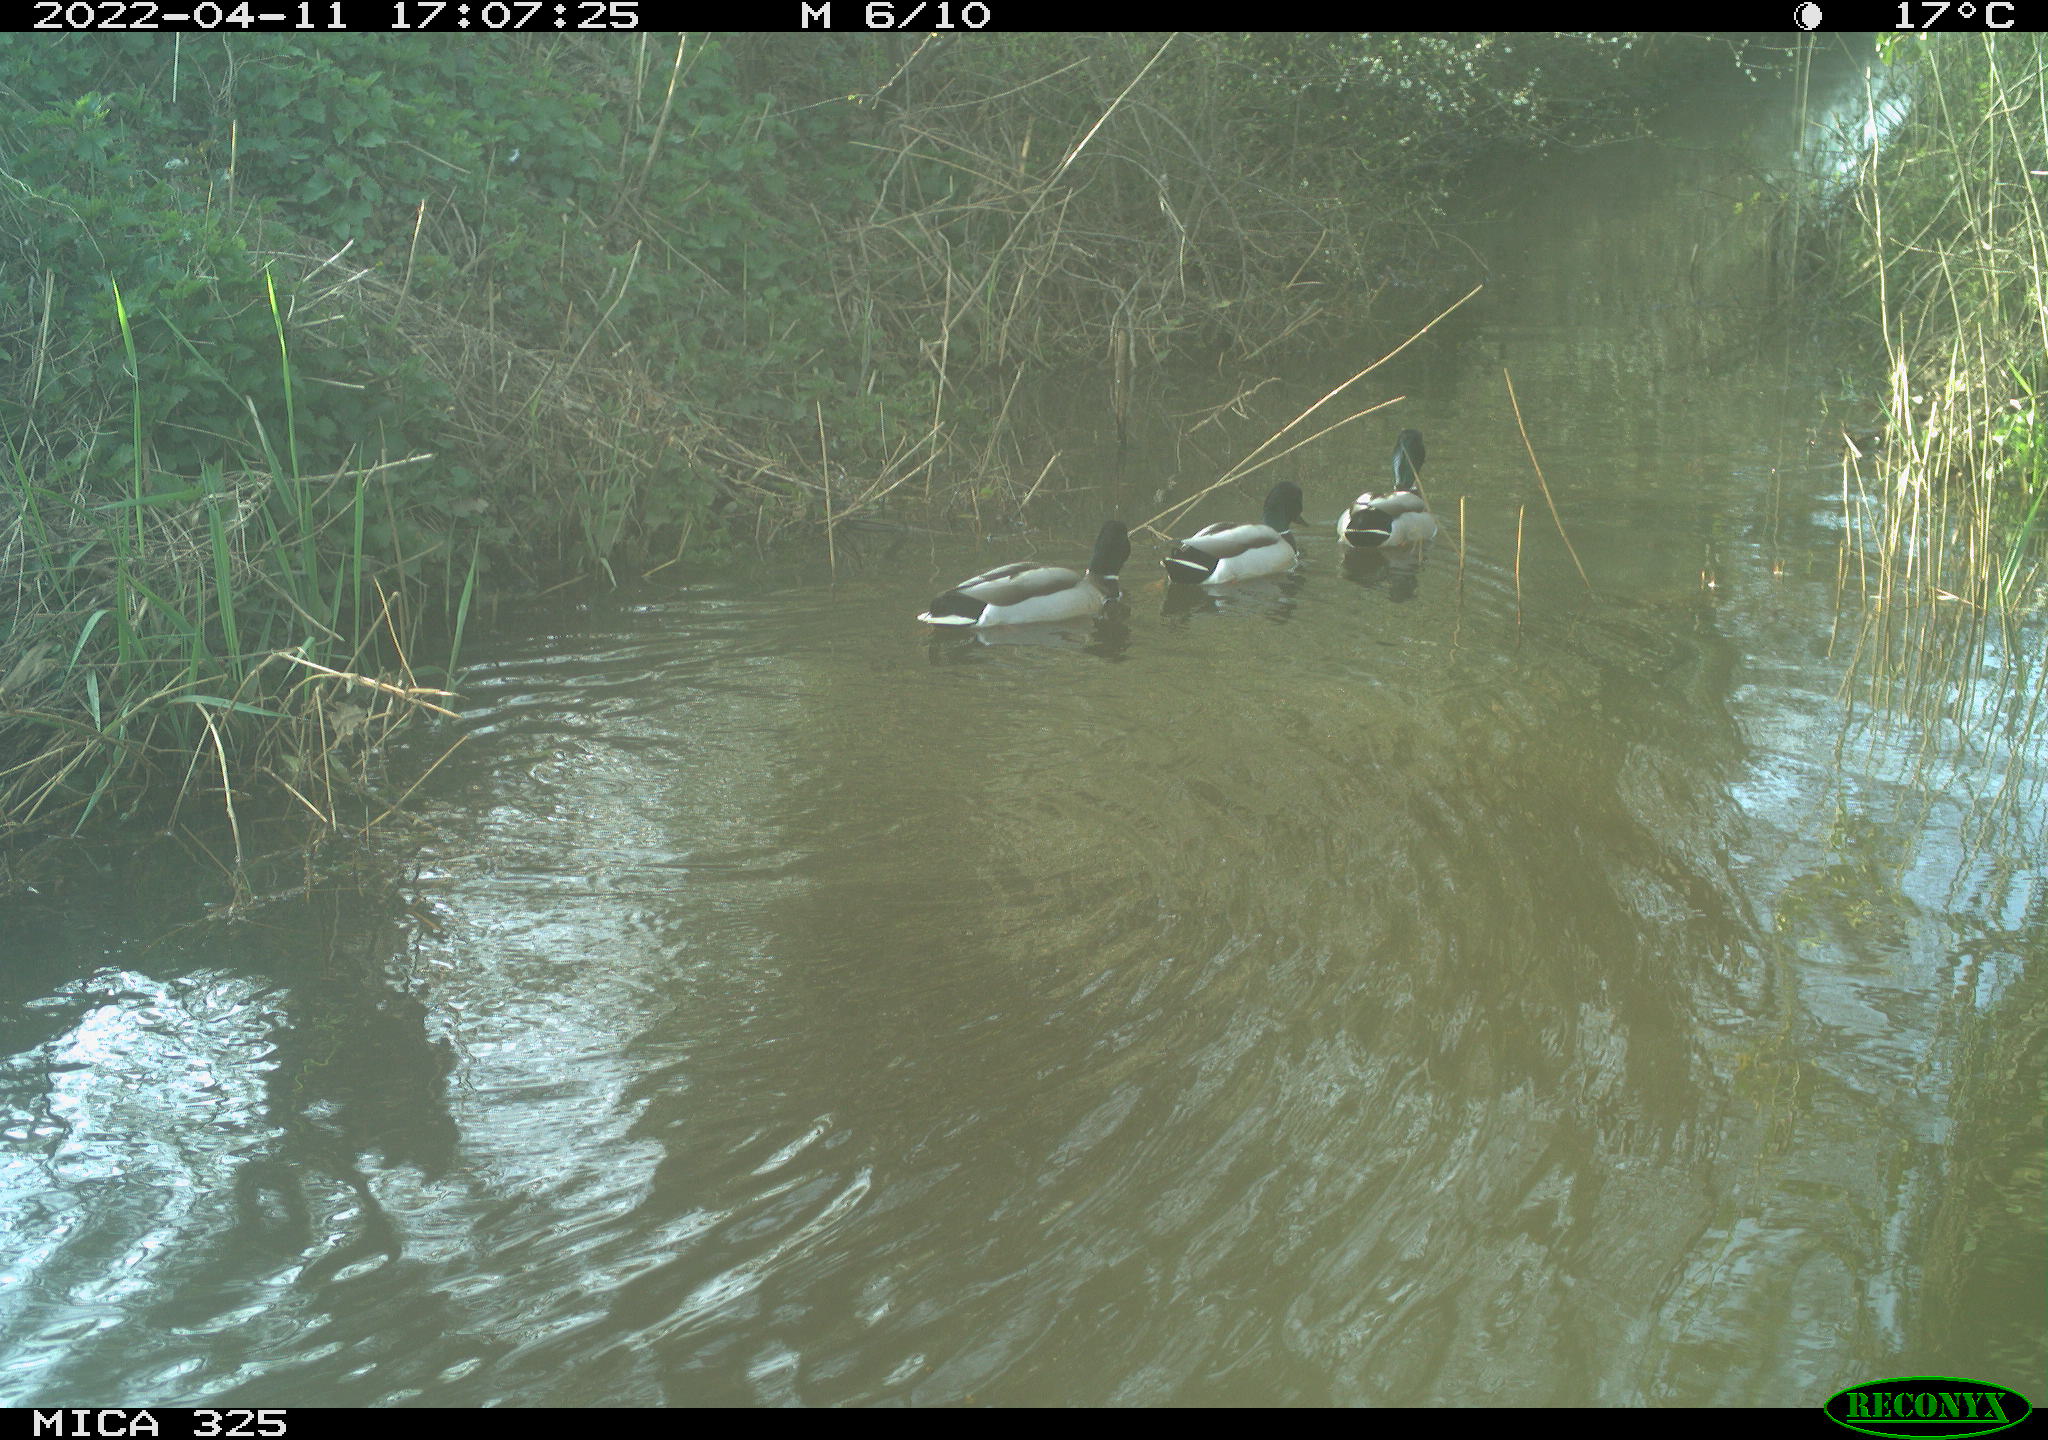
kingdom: Animalia
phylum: Chordata
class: Aves
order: Anseriformes
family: Anatidae
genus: Anas
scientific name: Anas platyrhynchos
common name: Mallard
